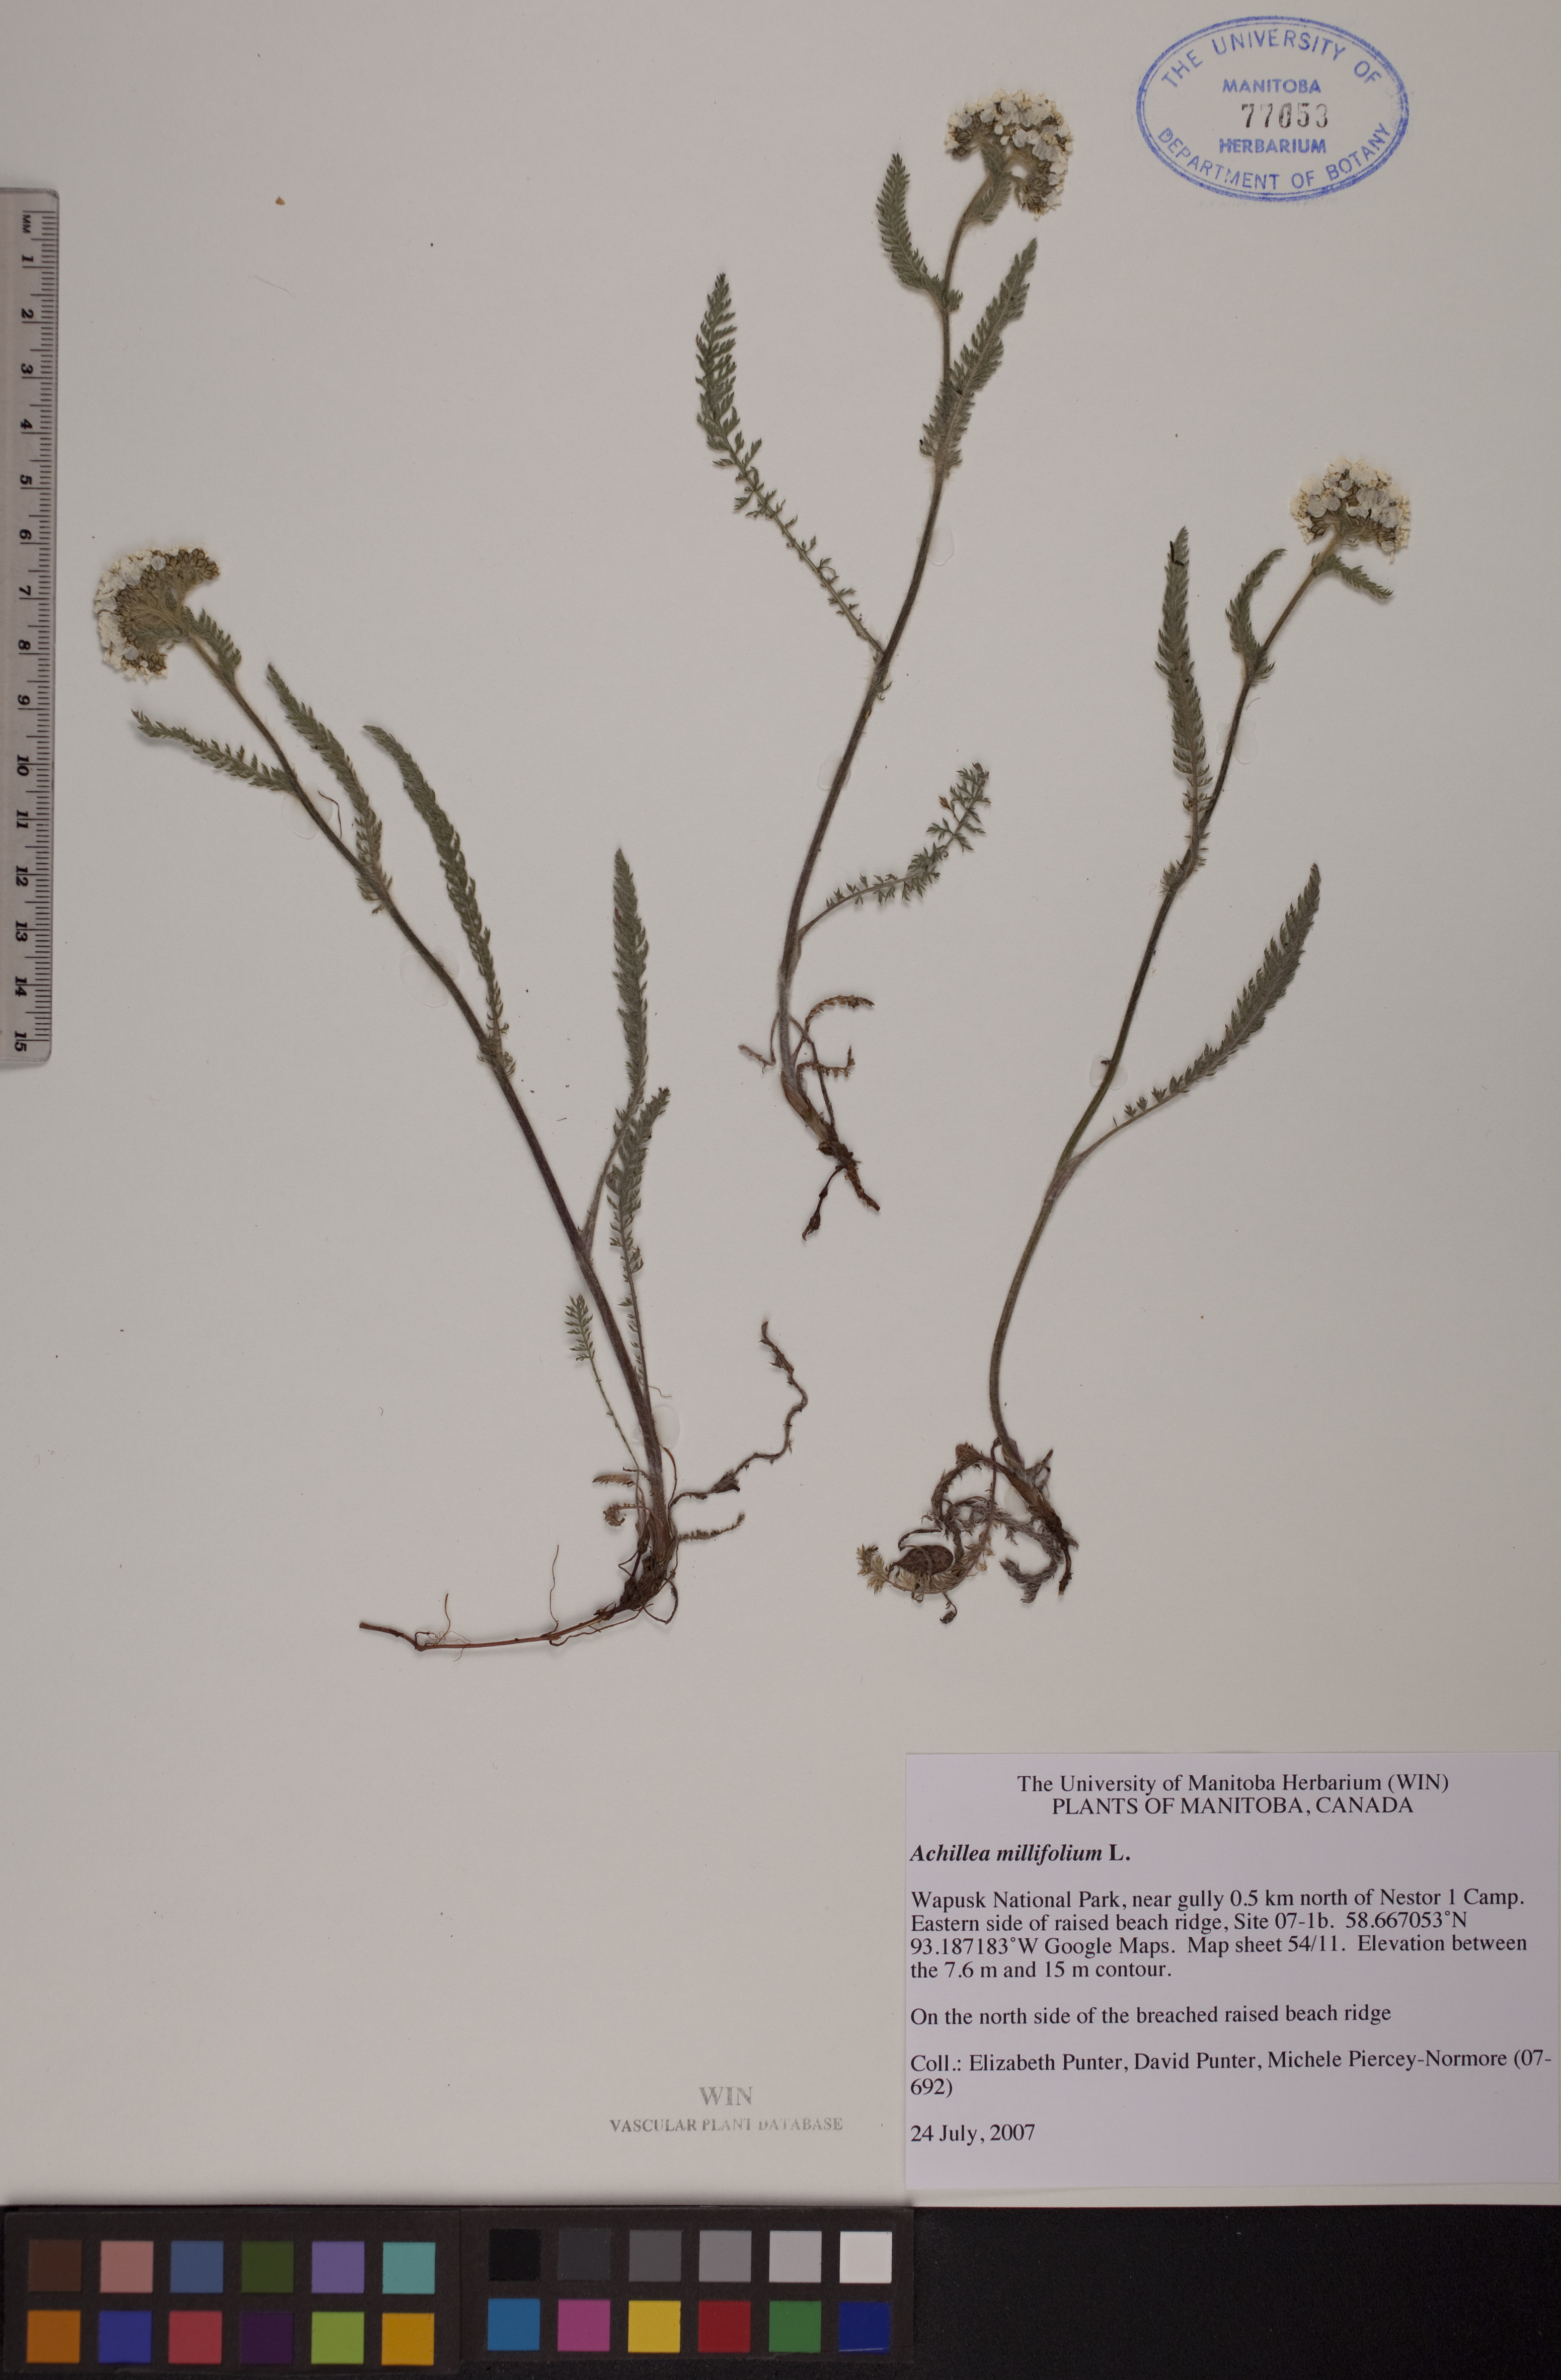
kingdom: Plantae
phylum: Tracheophyta
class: Magnoliopsida
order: Asterales
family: Asteraceae
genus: Achillea
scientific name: Achillea millefolium
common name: Yarrow
